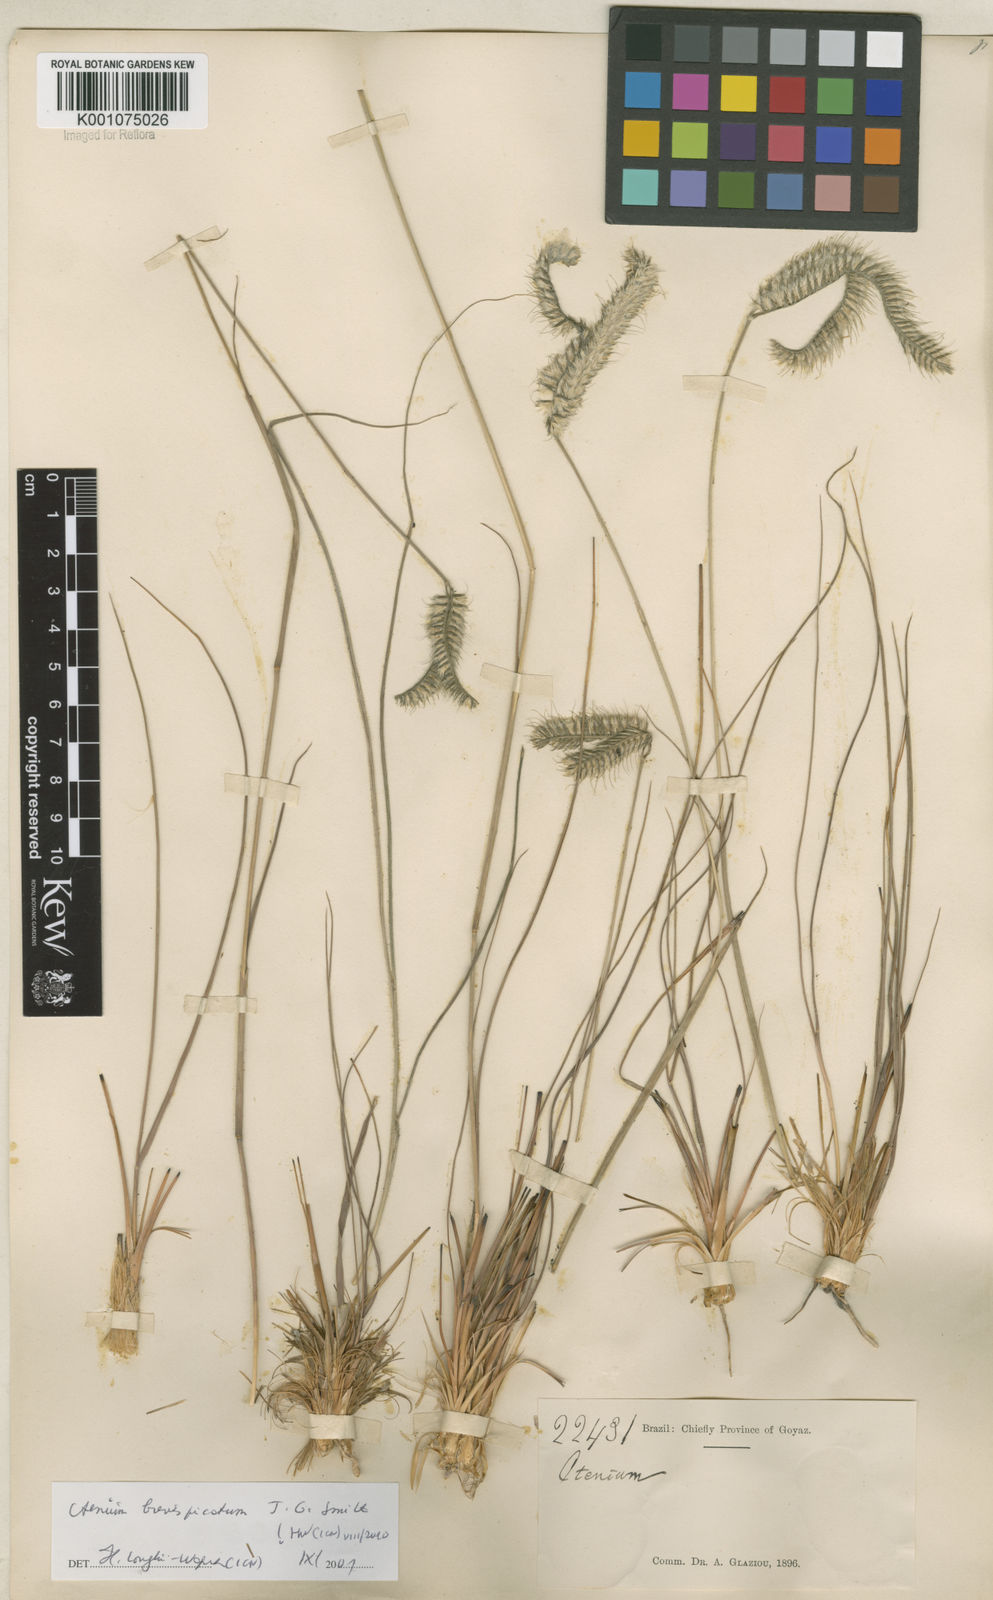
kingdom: Plantae
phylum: Tracheophyta
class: Liliopsida
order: Poales
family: Poaceae
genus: Ctenium
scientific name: Ctenium brevispicatum
